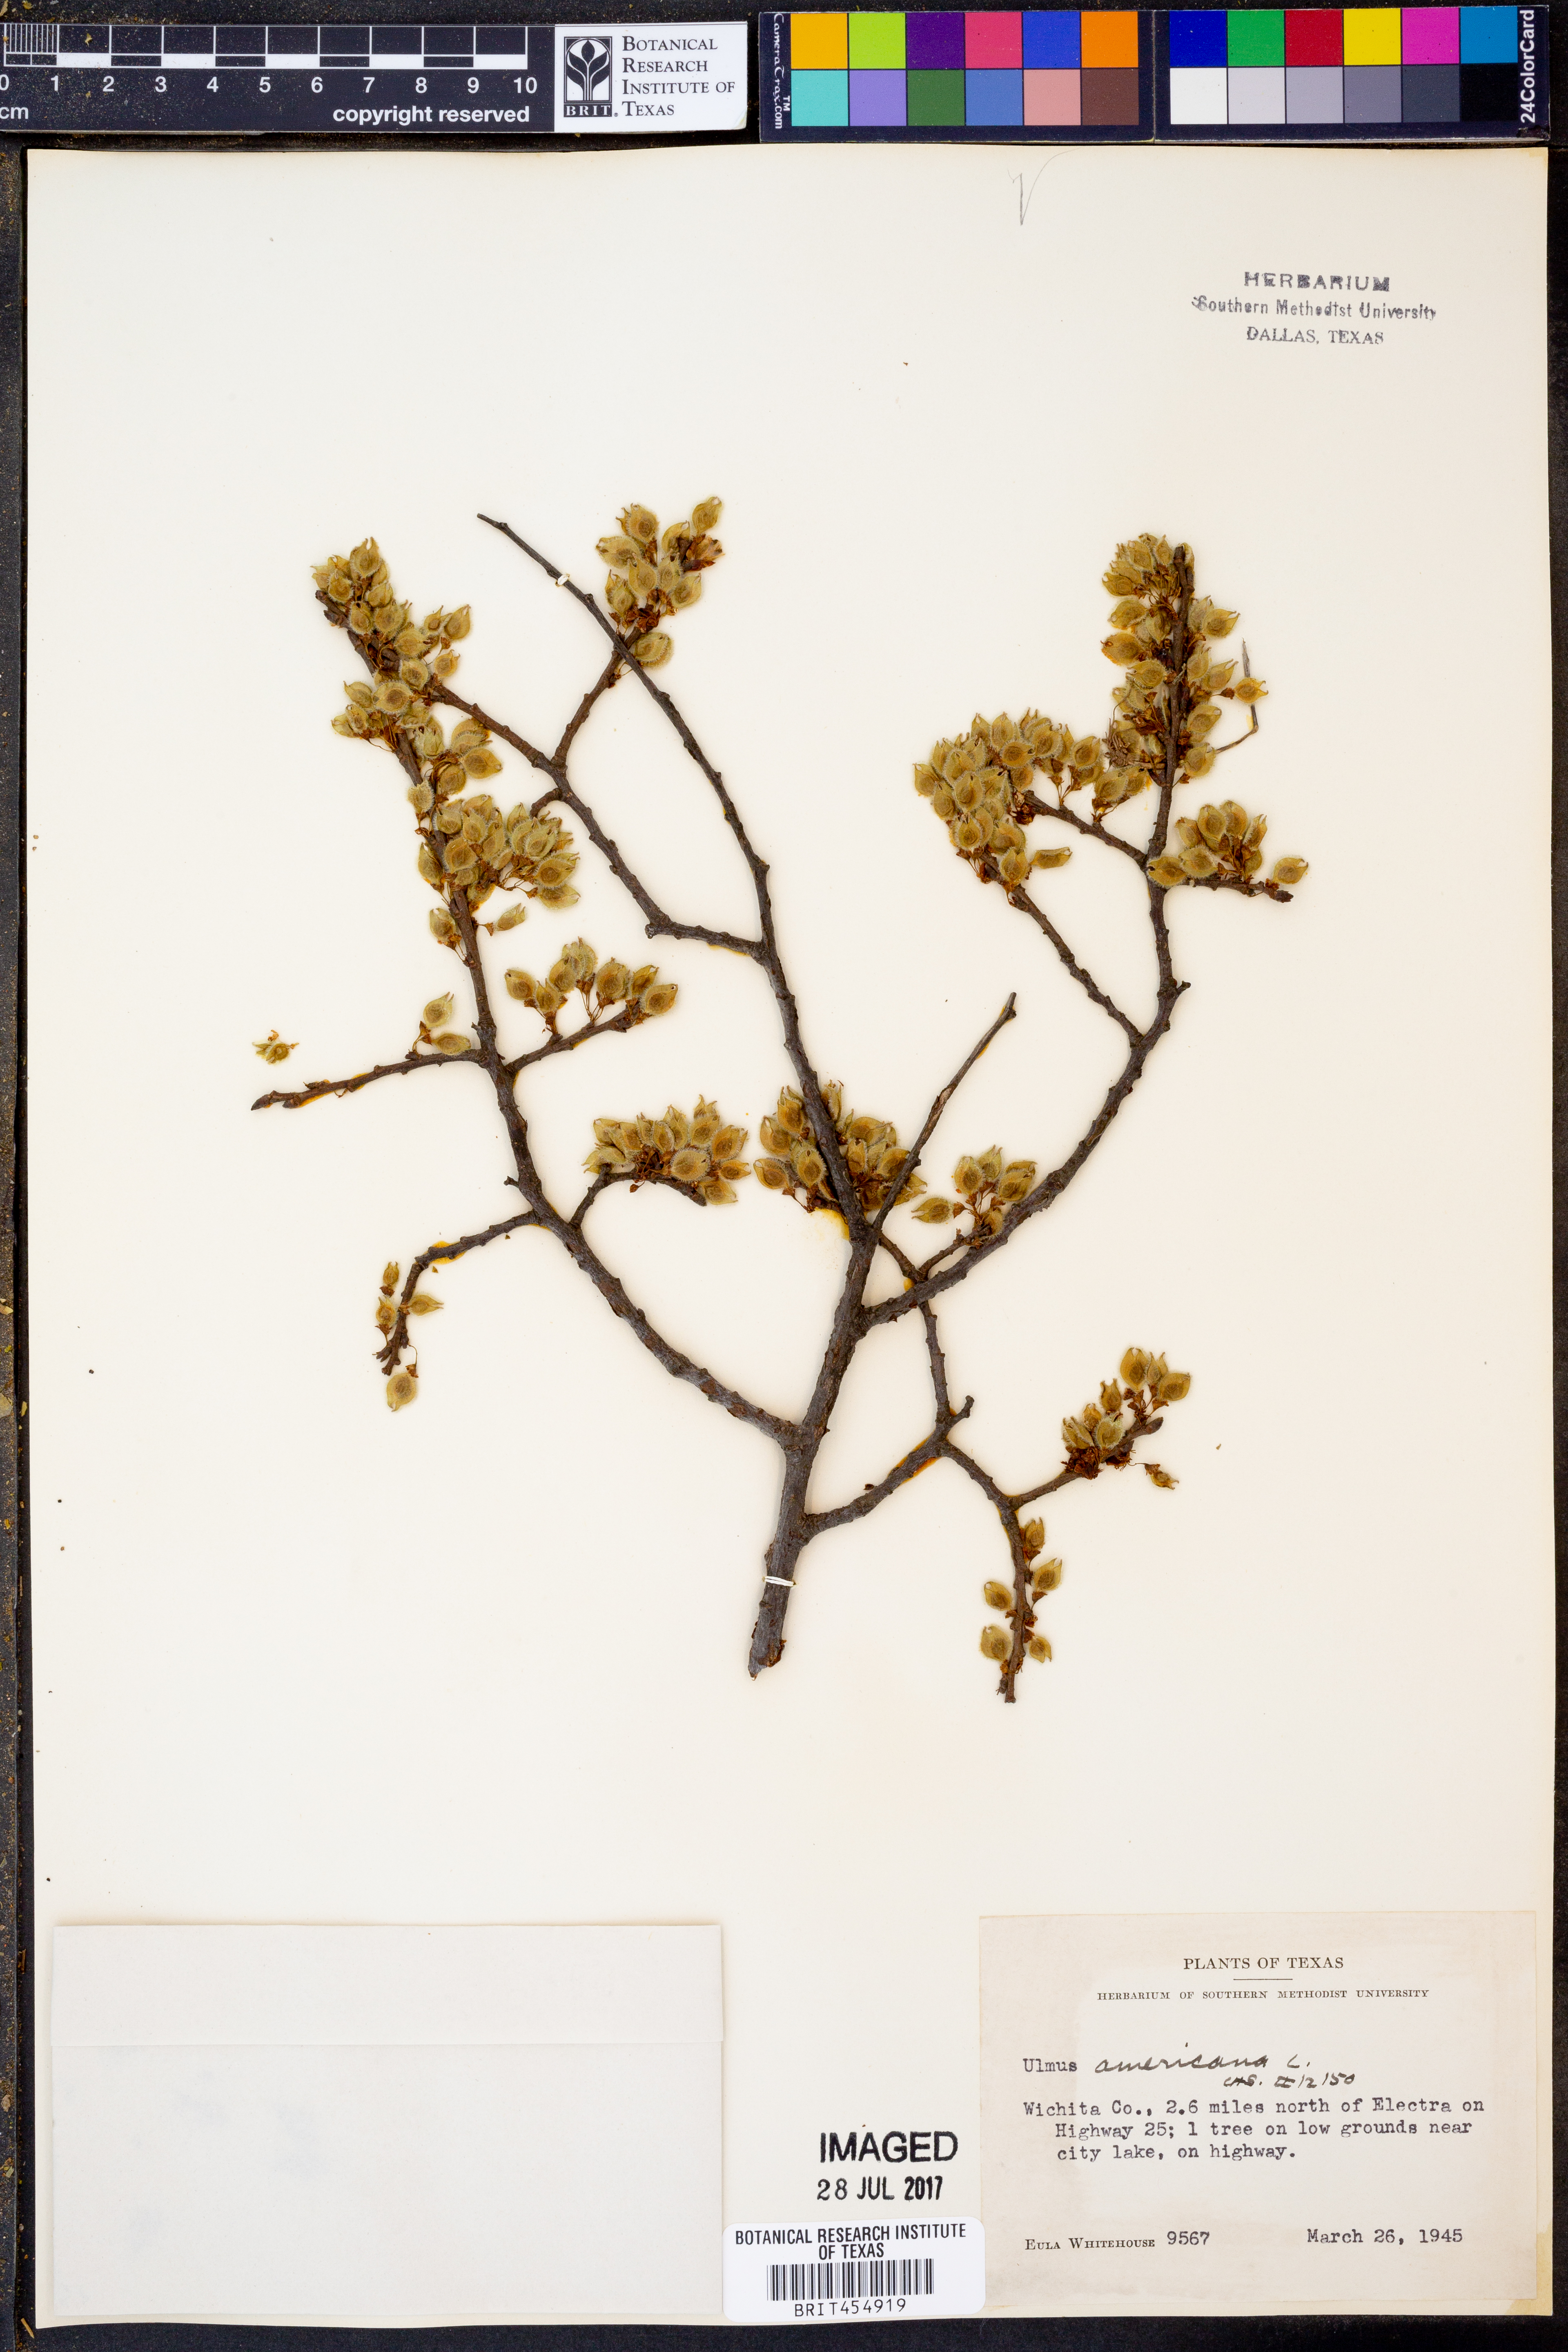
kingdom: Plantae
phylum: Tracheophyta
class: Magnoliopsida
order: Rosales
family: Ulmaceae
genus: Ulmus
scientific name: Ulmus americana
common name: American elm
